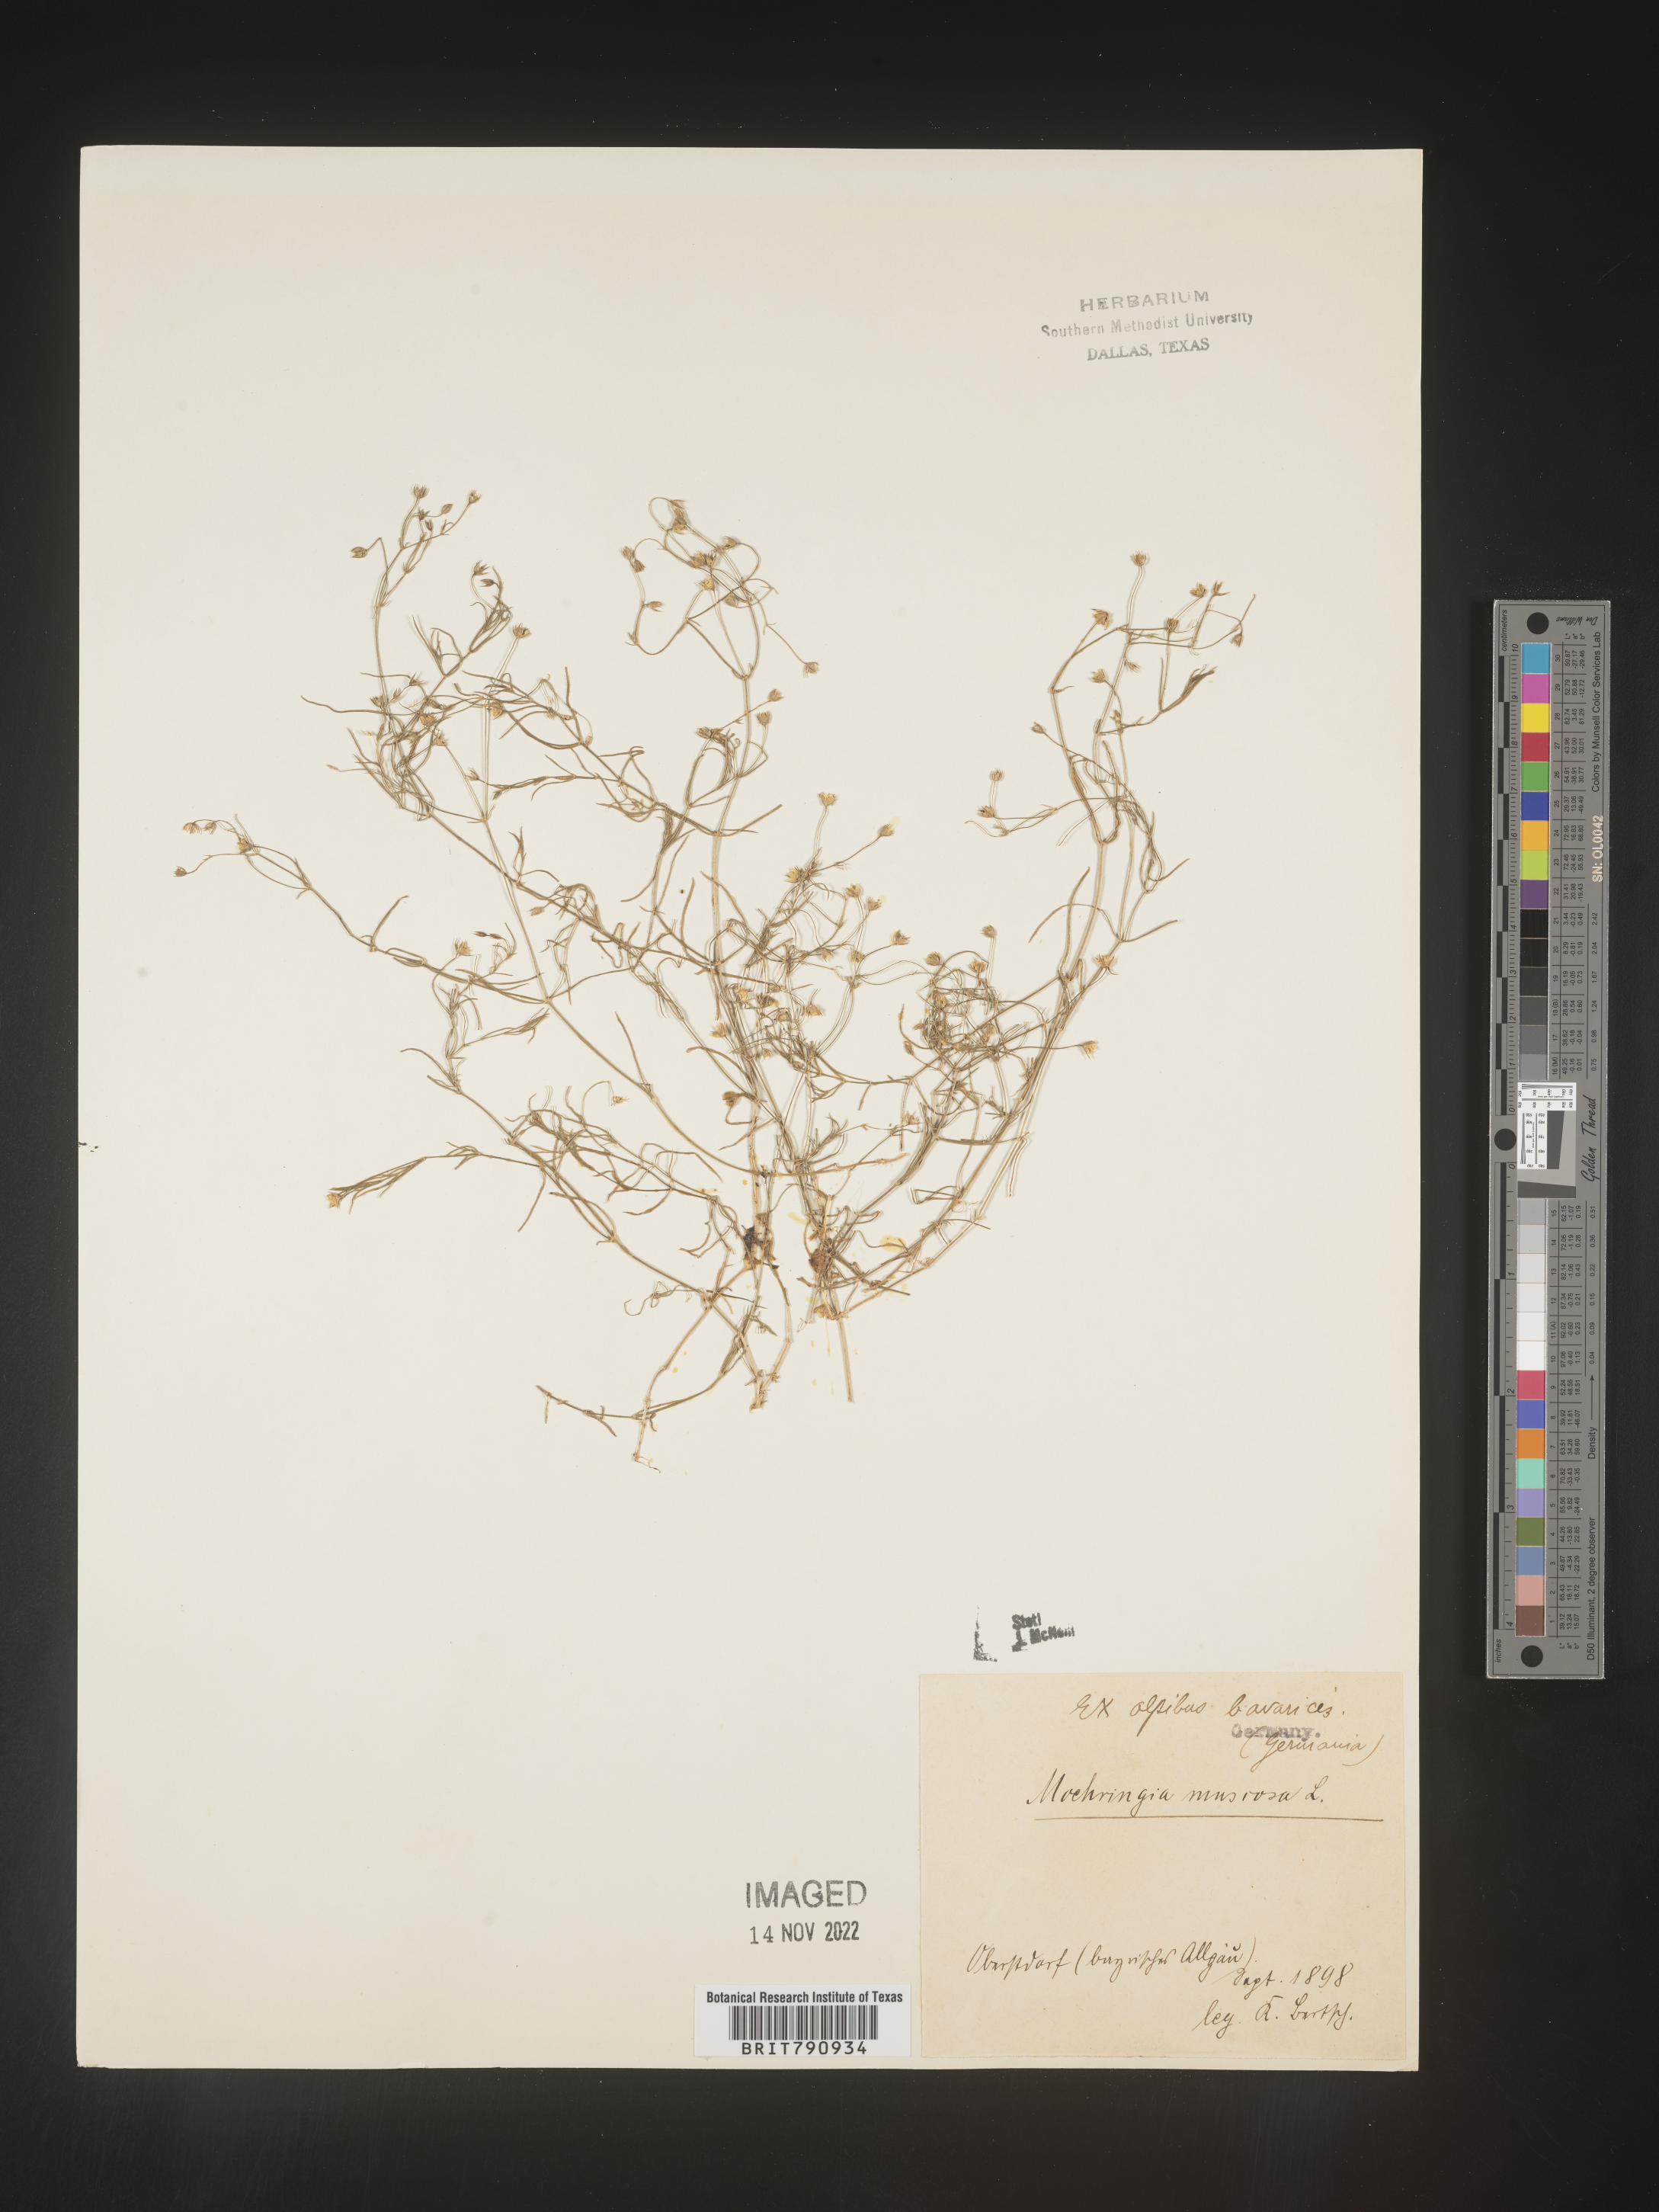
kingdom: Plantae
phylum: Tracheophyta
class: Magnoliopsida
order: Caryophyllales
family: Caryophyllaceae
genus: Moehringia
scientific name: Moehringia
